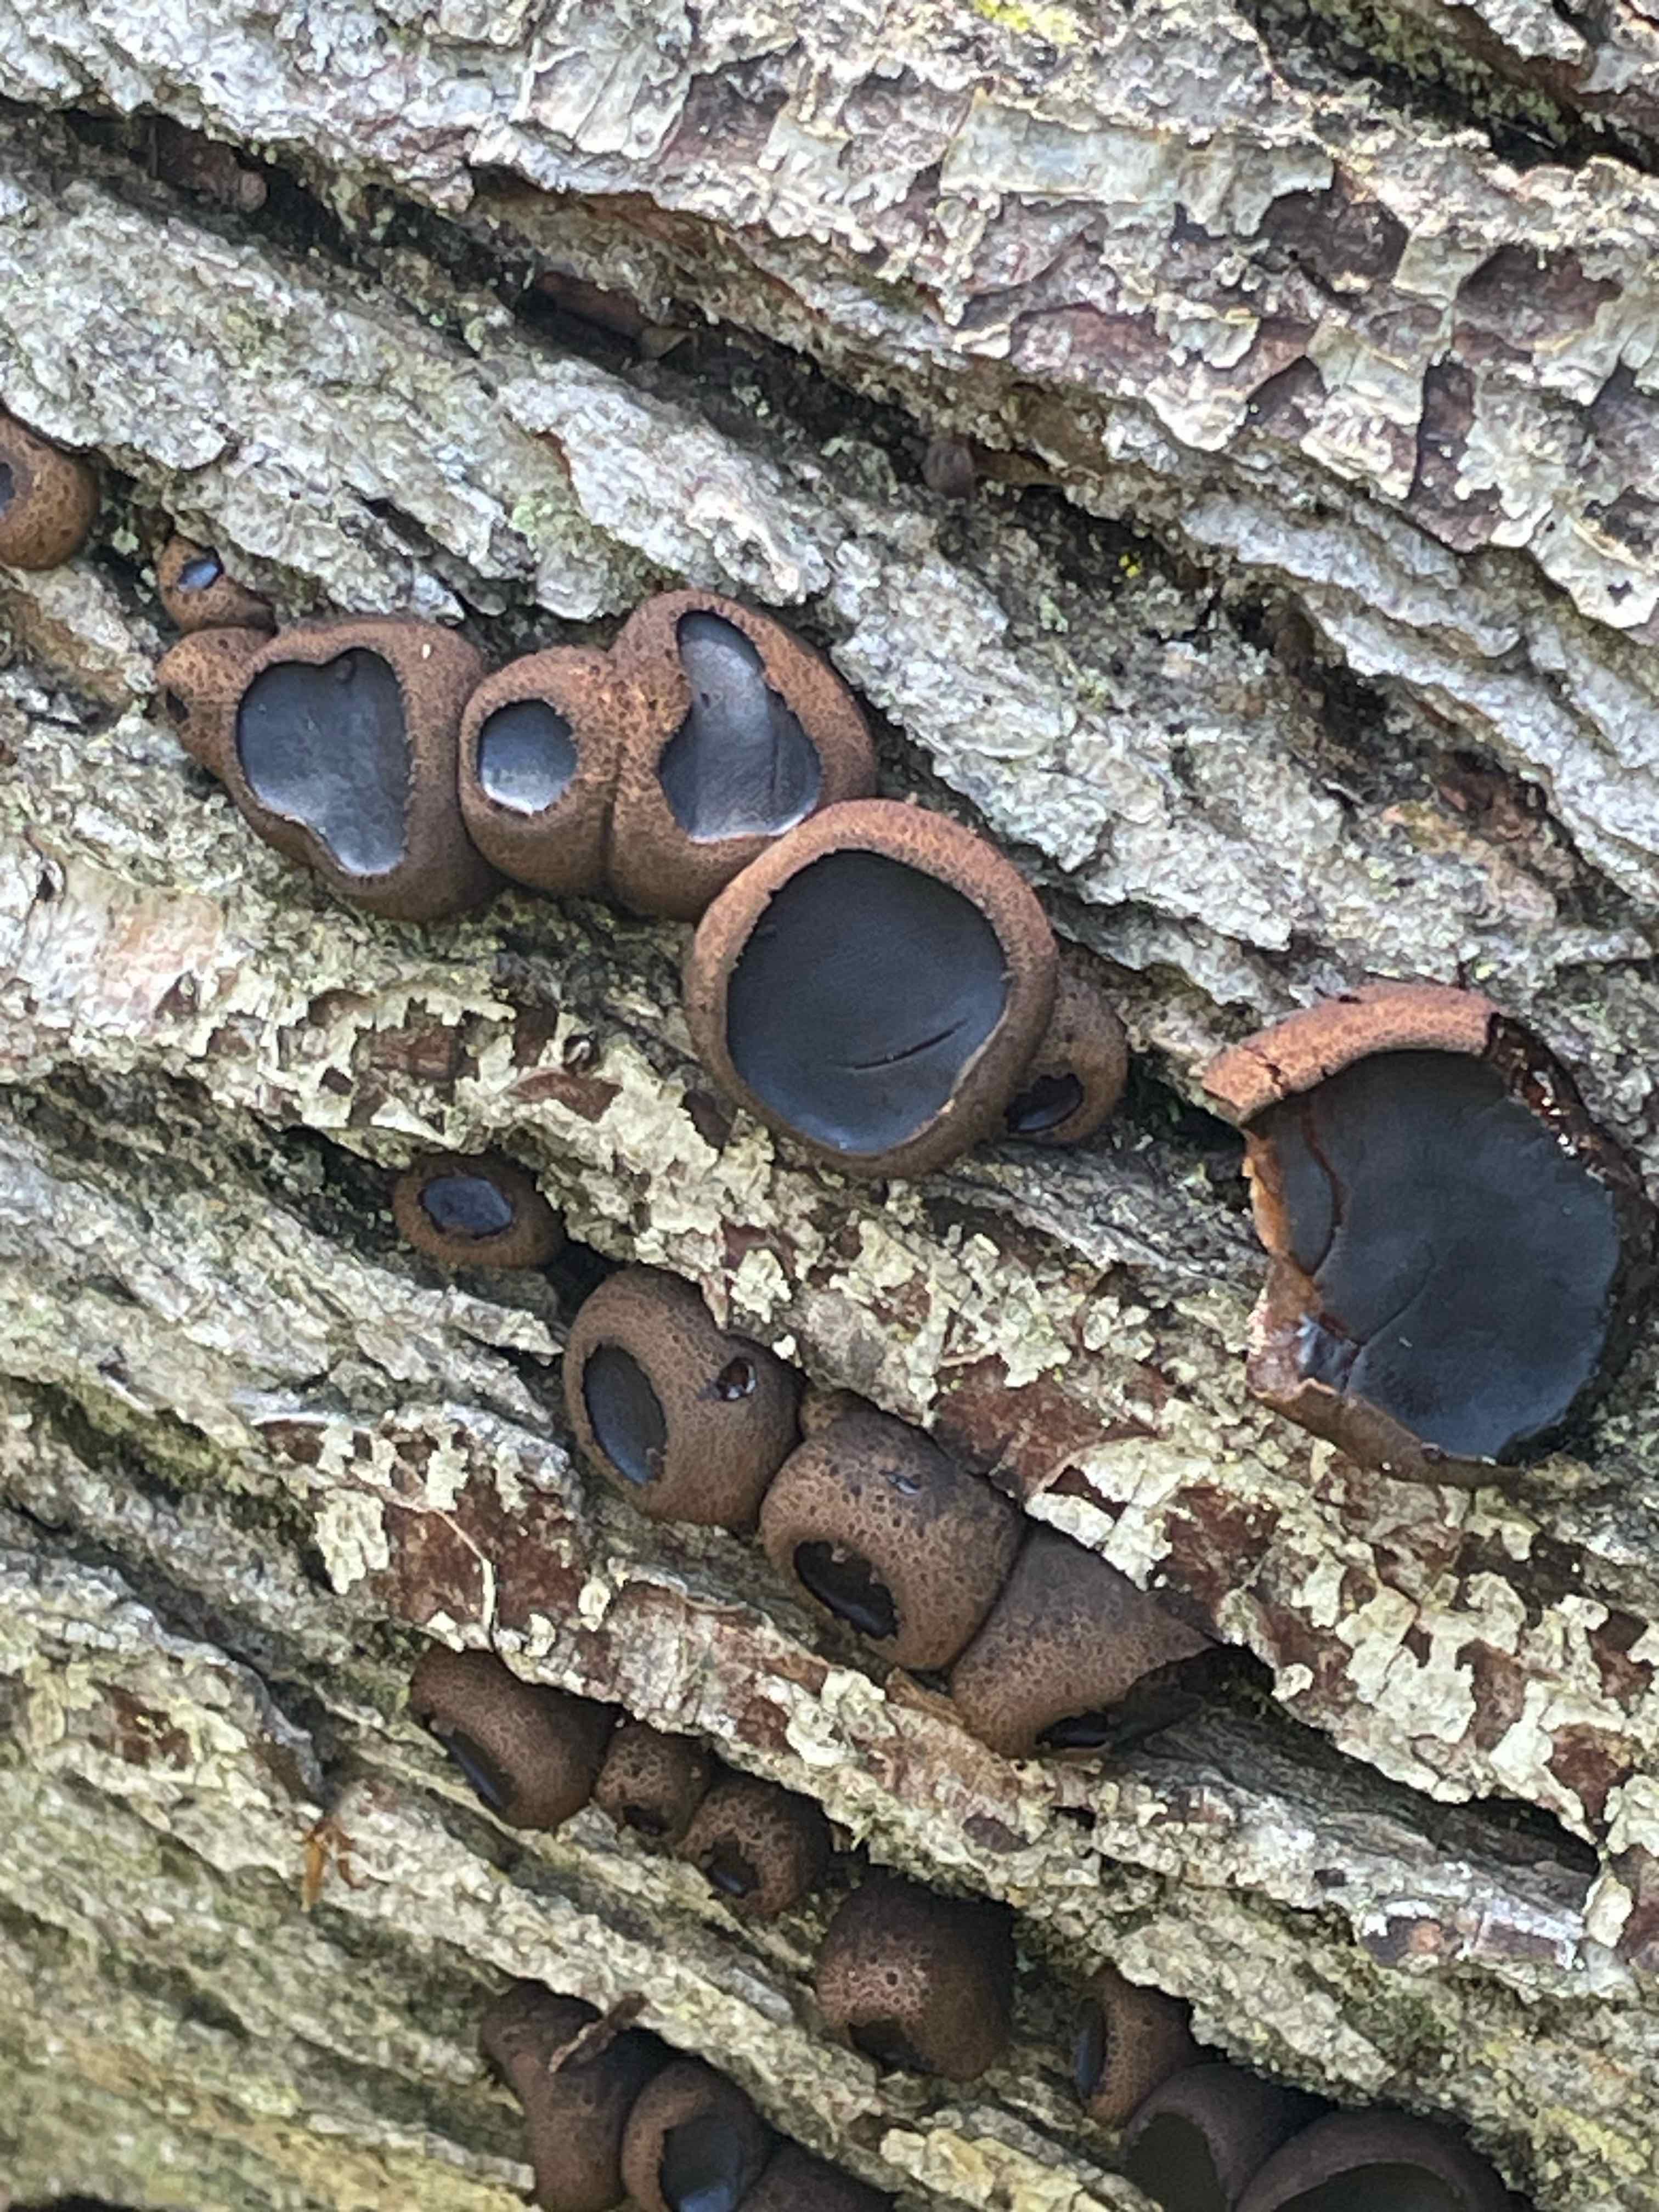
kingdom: Fungi
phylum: Ascomycota
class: Leotiomycetes
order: Phacidiales
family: Phacidiaceae
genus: Bulgaria
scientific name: Bulgaria inquinans
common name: afsmittende topsvamp
